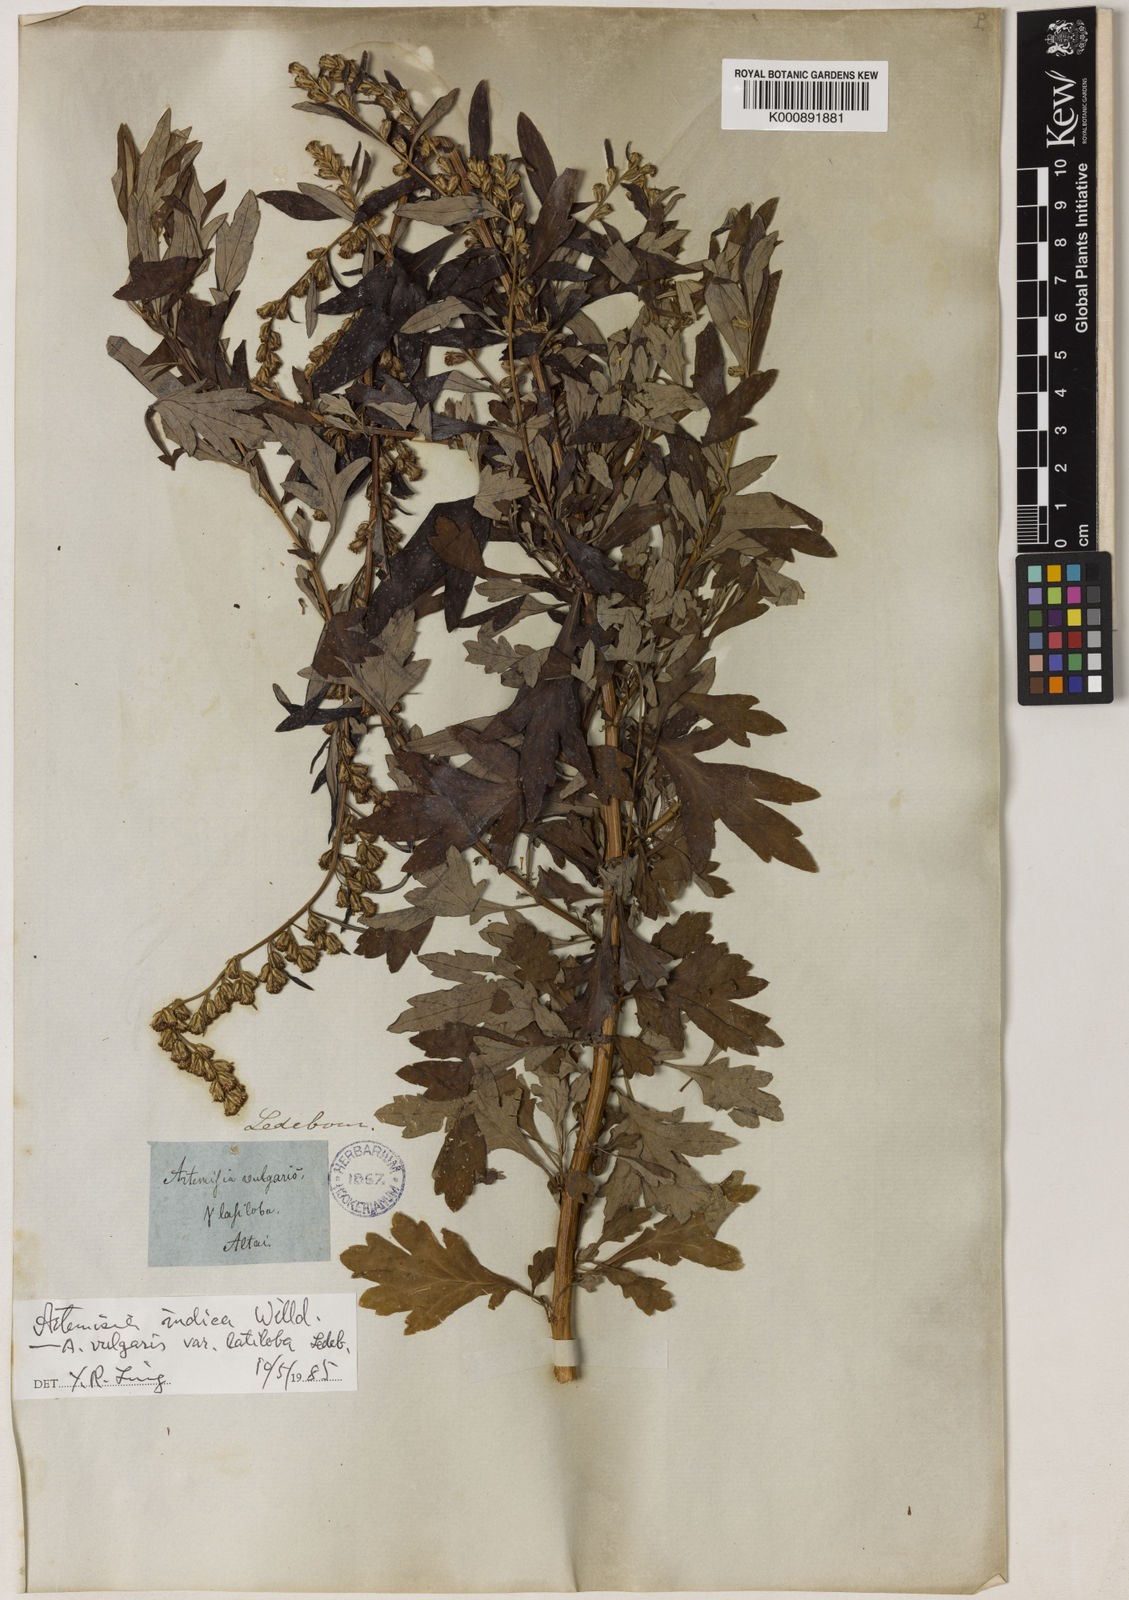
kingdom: Plantae
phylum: Tracheophyta
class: Magnoliopsida
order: Asterales
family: Asteraceae
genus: Artemisia
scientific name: Artemisia indica
